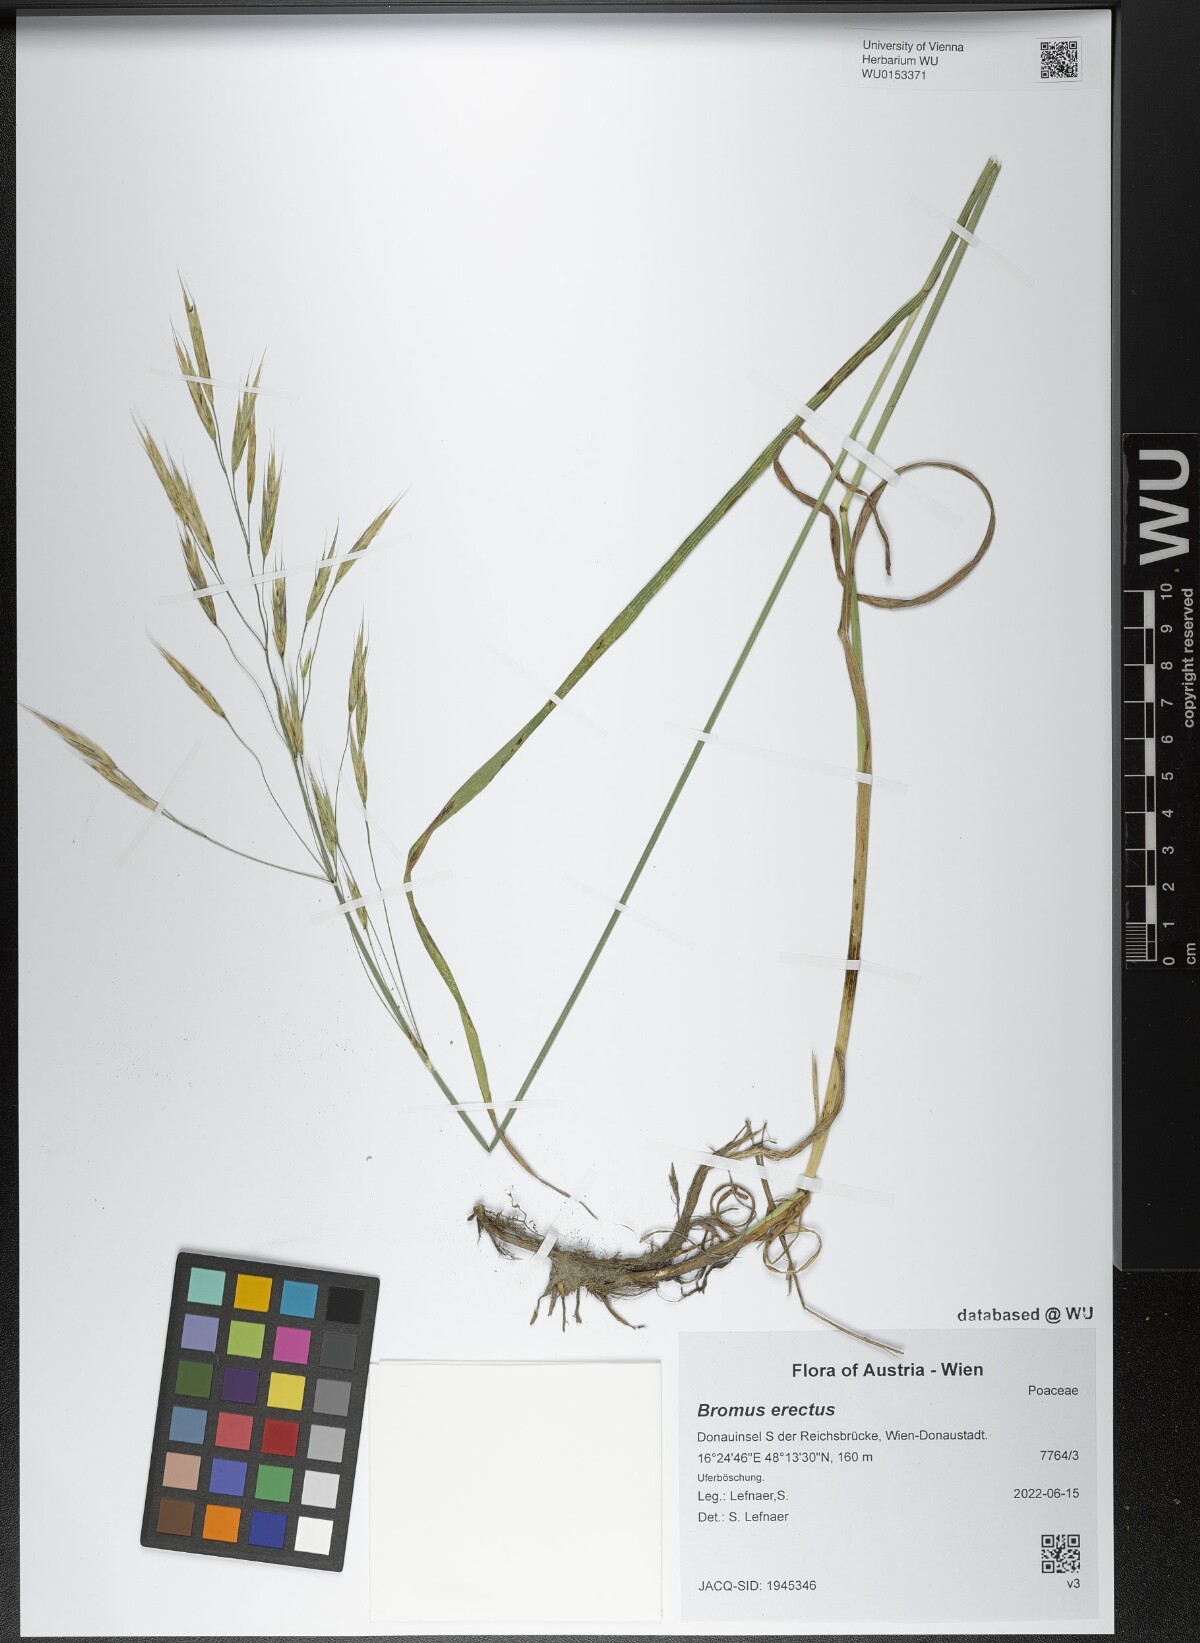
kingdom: Plantae
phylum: Tracheophyta
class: Liliopsida
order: Poales
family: Poaceae
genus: Bromus
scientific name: Bromus erectus
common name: Erect brome
